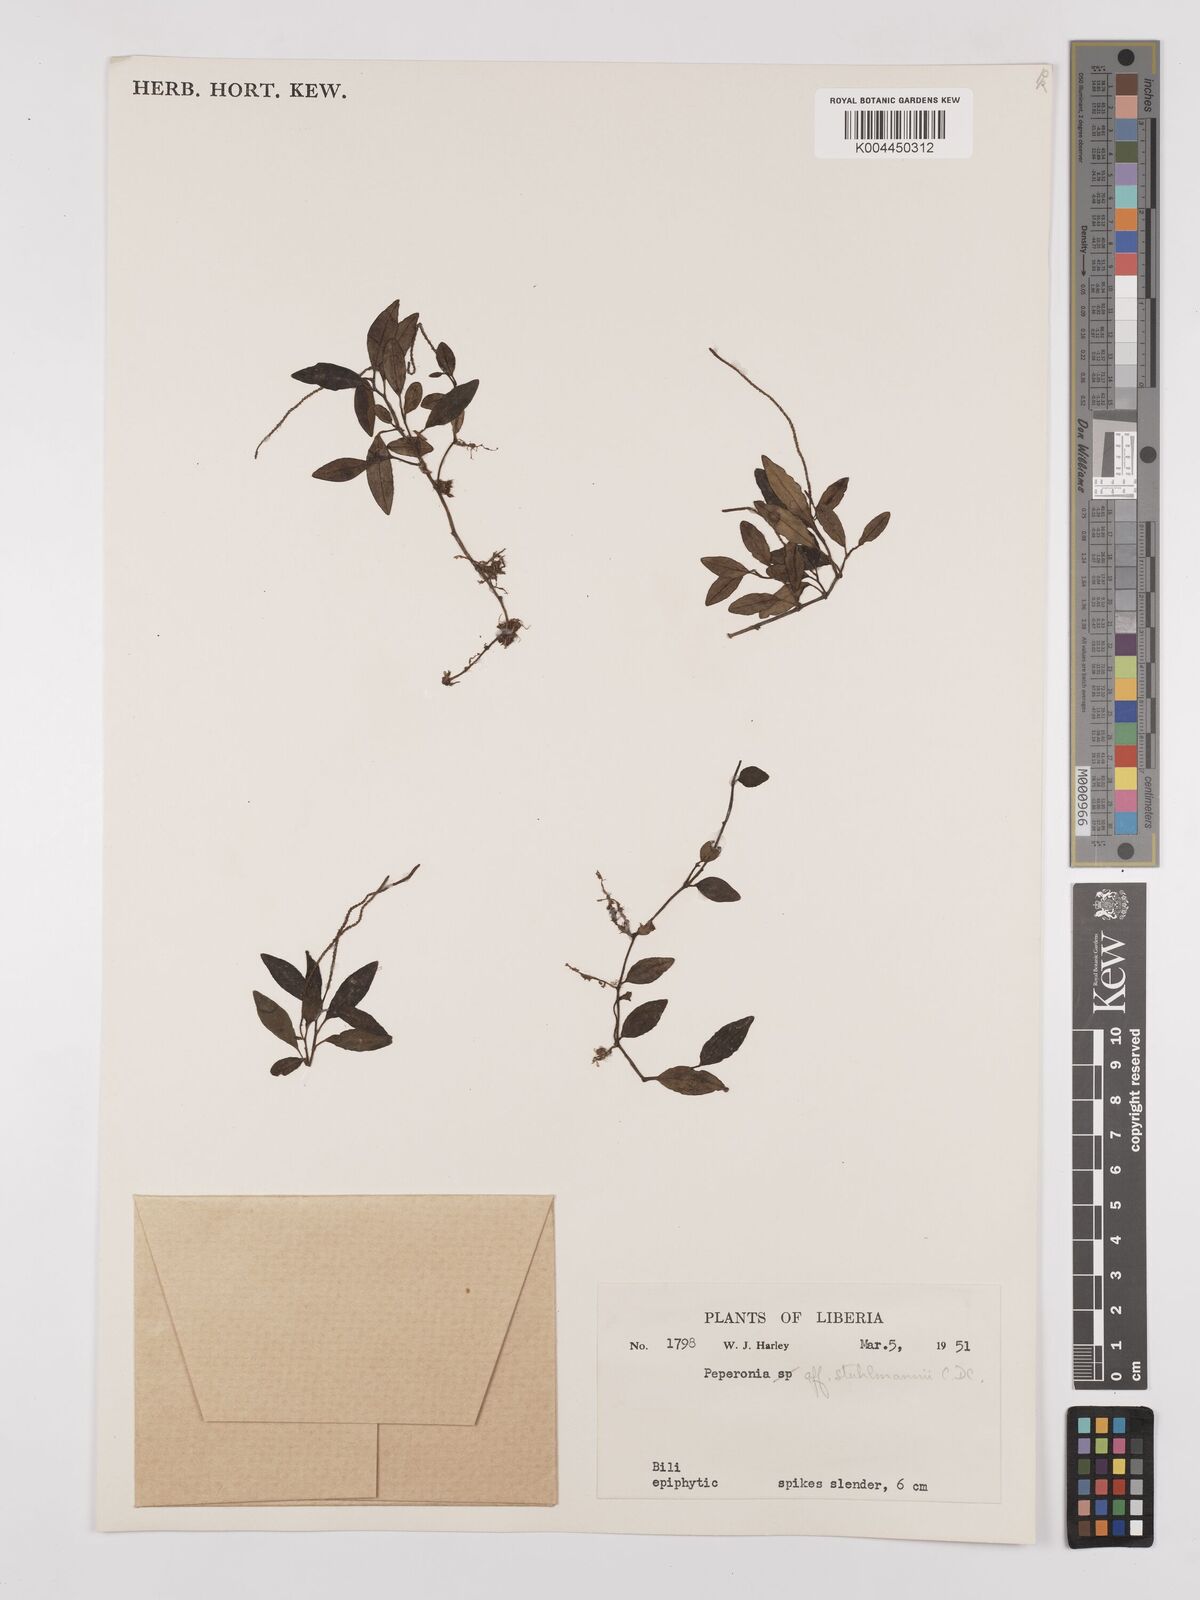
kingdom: Plantae
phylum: Tracheophyta
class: Magnoliopsida
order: Piperales
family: Piperaceae
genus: Peperomia
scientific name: Peperomia abyssinica
